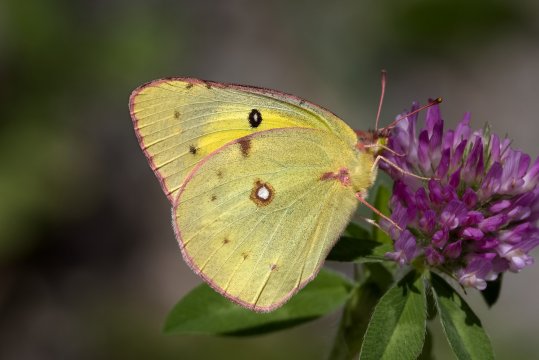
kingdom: Animalia
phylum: Arthropoda
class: Insecta
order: Lepidoptera
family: Pieridae
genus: Colias
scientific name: Colias philodice
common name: Clouded Sulphur
